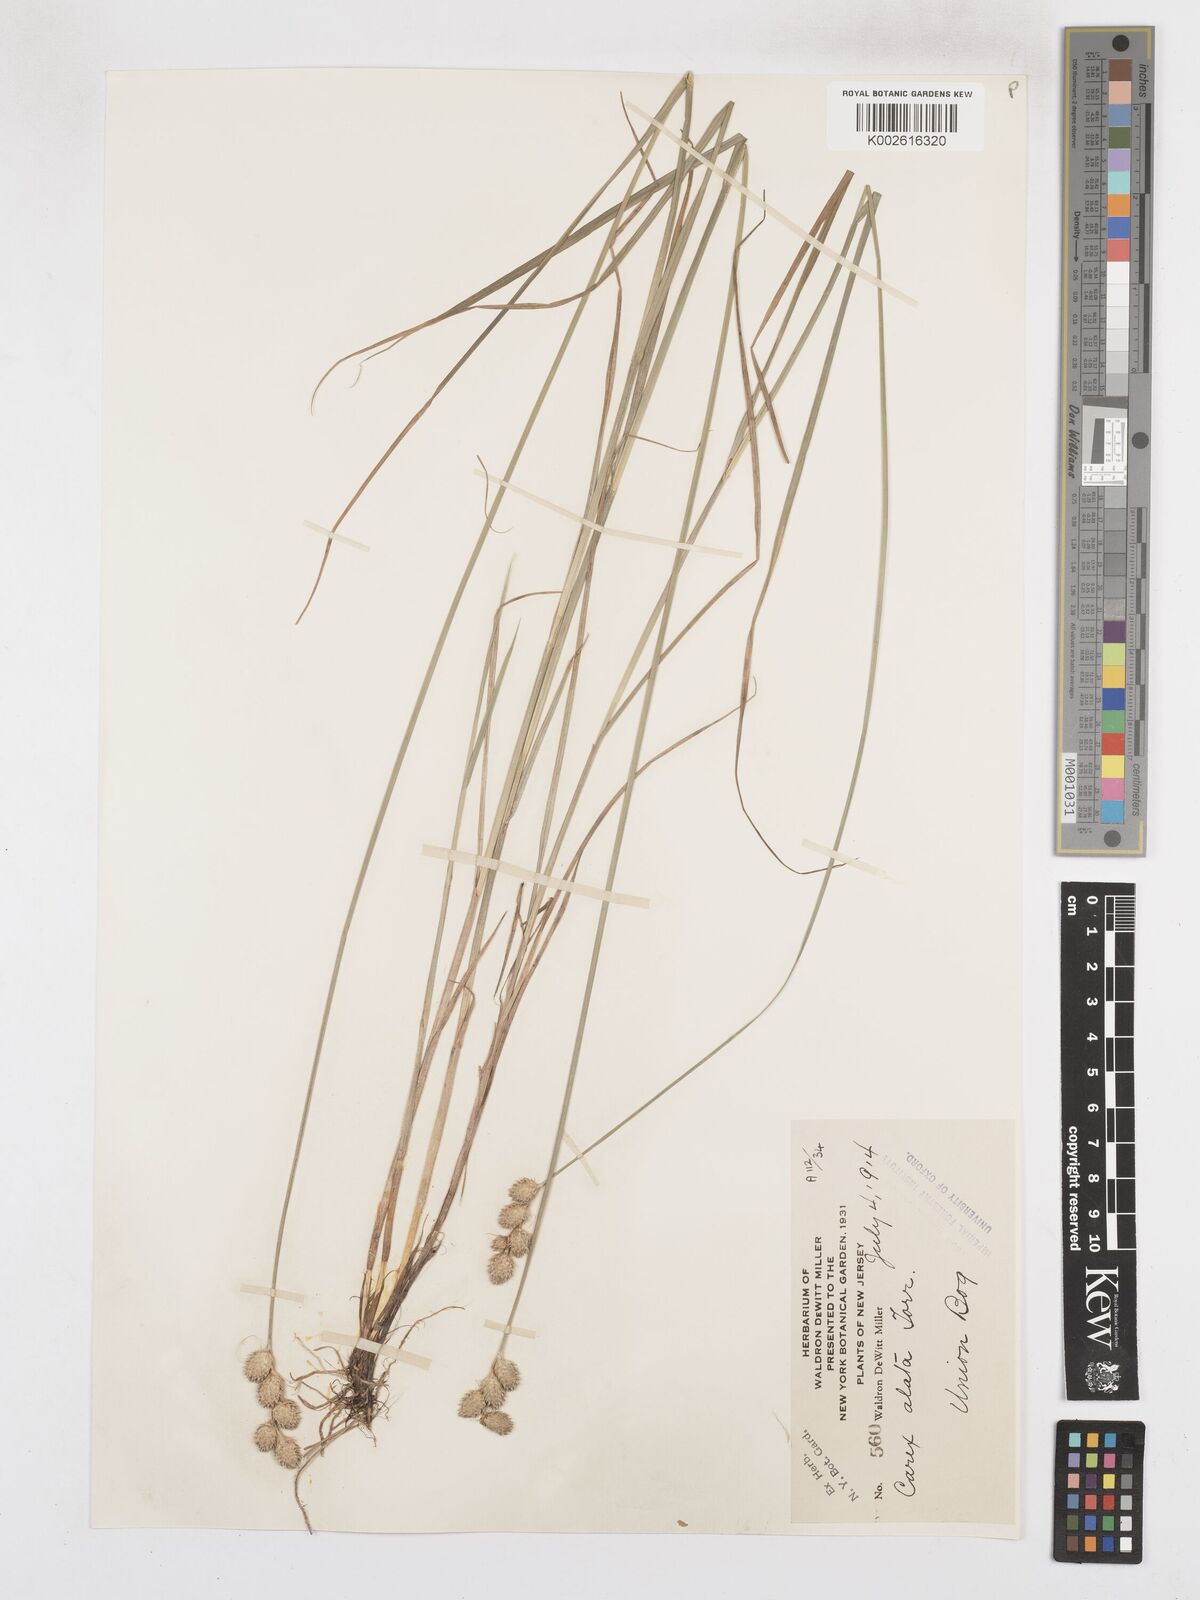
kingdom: Plantae
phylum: Tracheophyta
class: Liliopsida
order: Poales
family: Cyperaceae
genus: Carex
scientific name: Carex alata
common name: Broad-winged sedge
